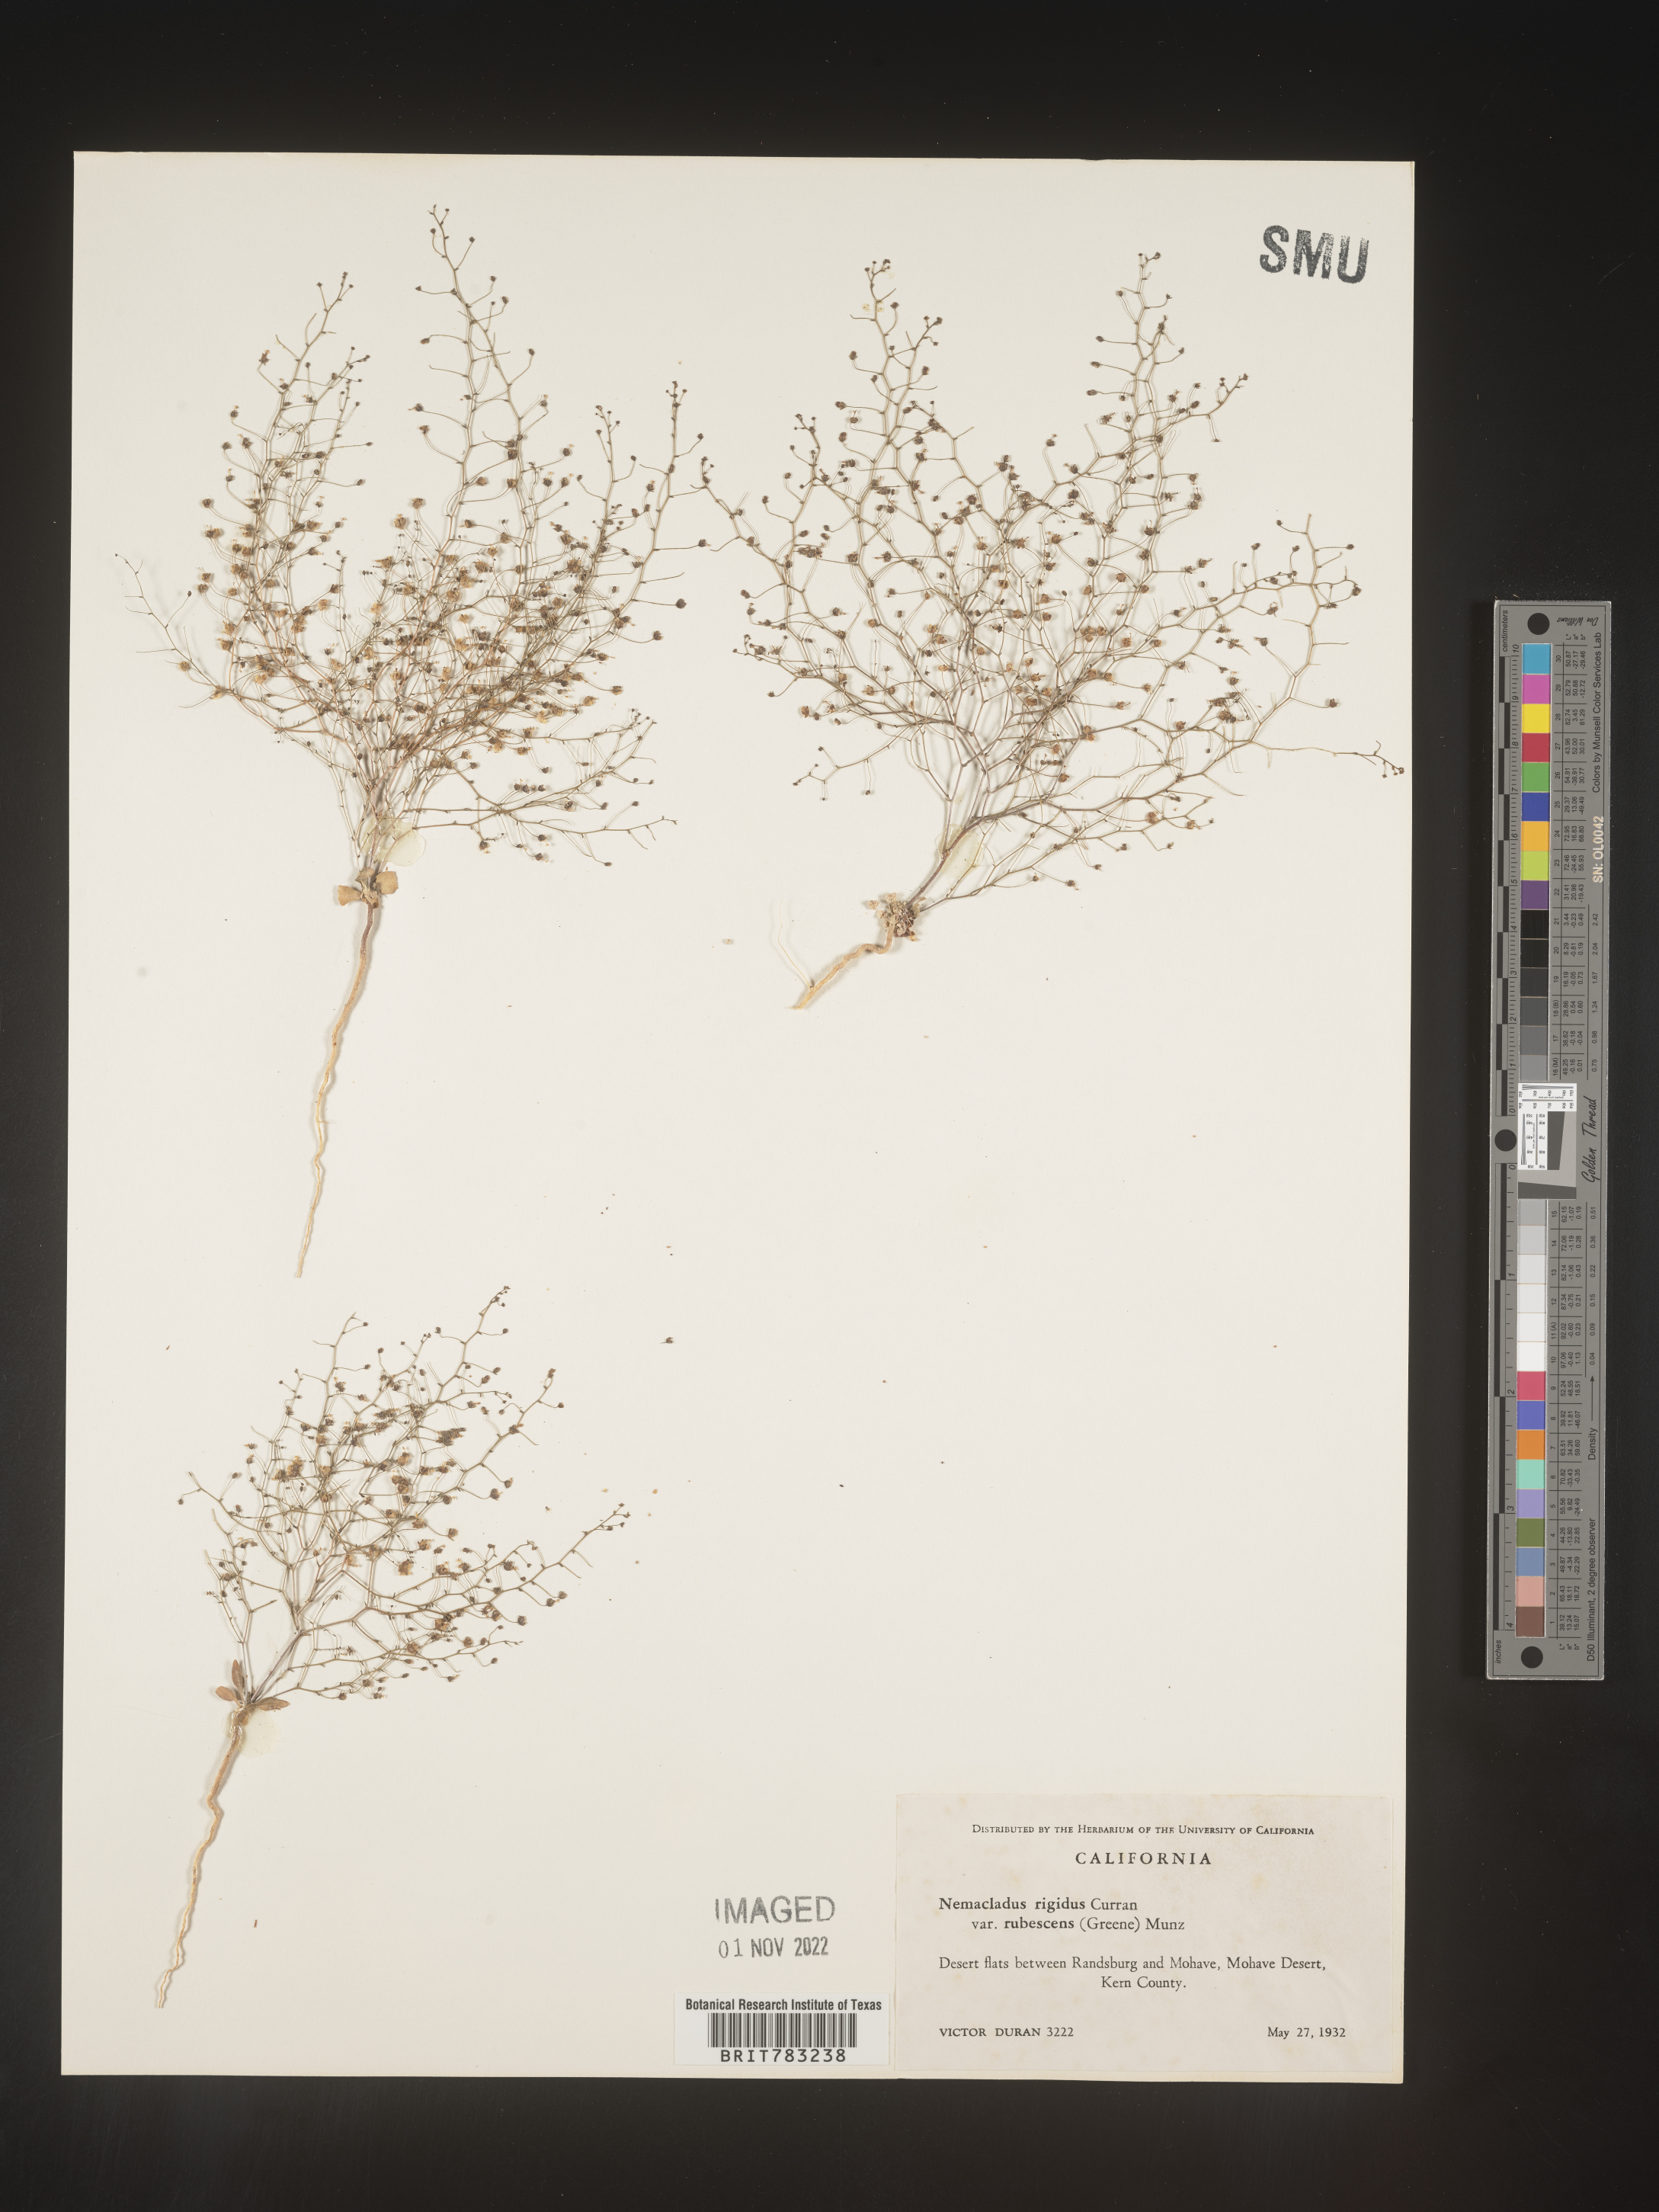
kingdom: Plantae
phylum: Tracheophyta
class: Magnoliopsida
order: Asterales
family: Campanulaceae
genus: Nemacladus
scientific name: Nemacladus
